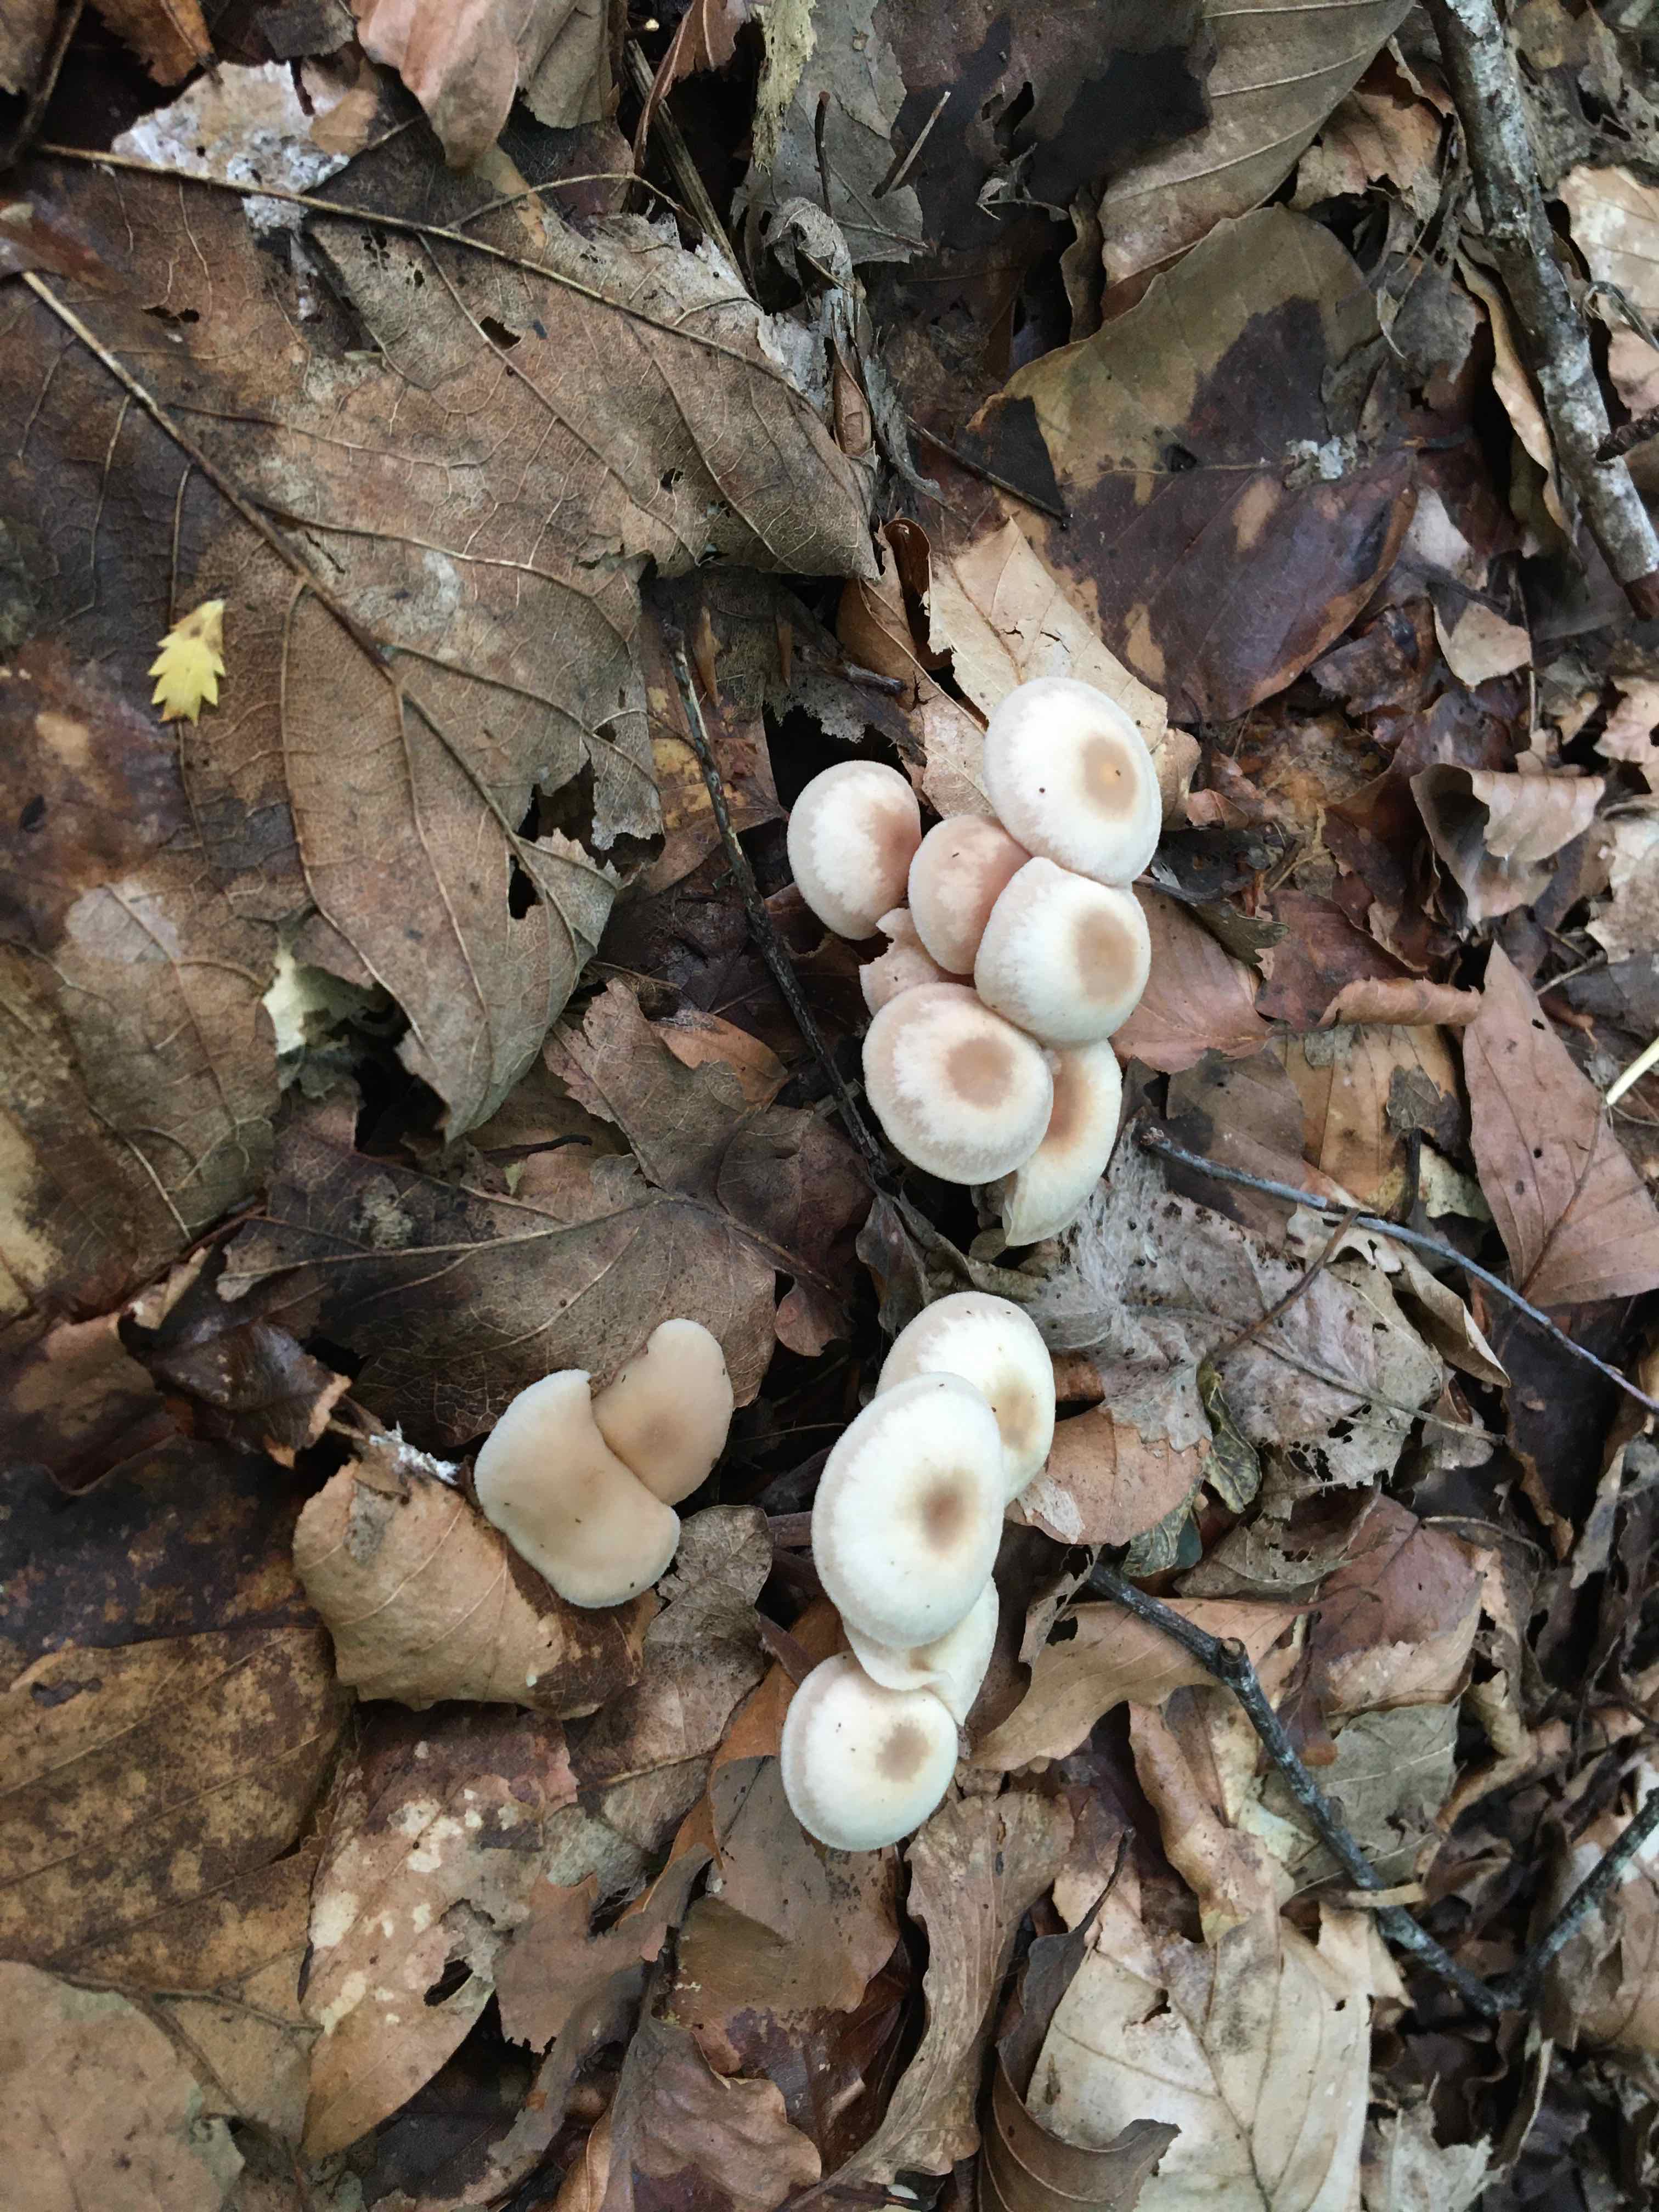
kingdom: Fungi
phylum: Basidiomycota
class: Agaricomycetes
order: Agaricales
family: Omphalotaceae
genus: Collybiopsis
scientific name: Collybiopsis confluens
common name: knippe-fladhat
